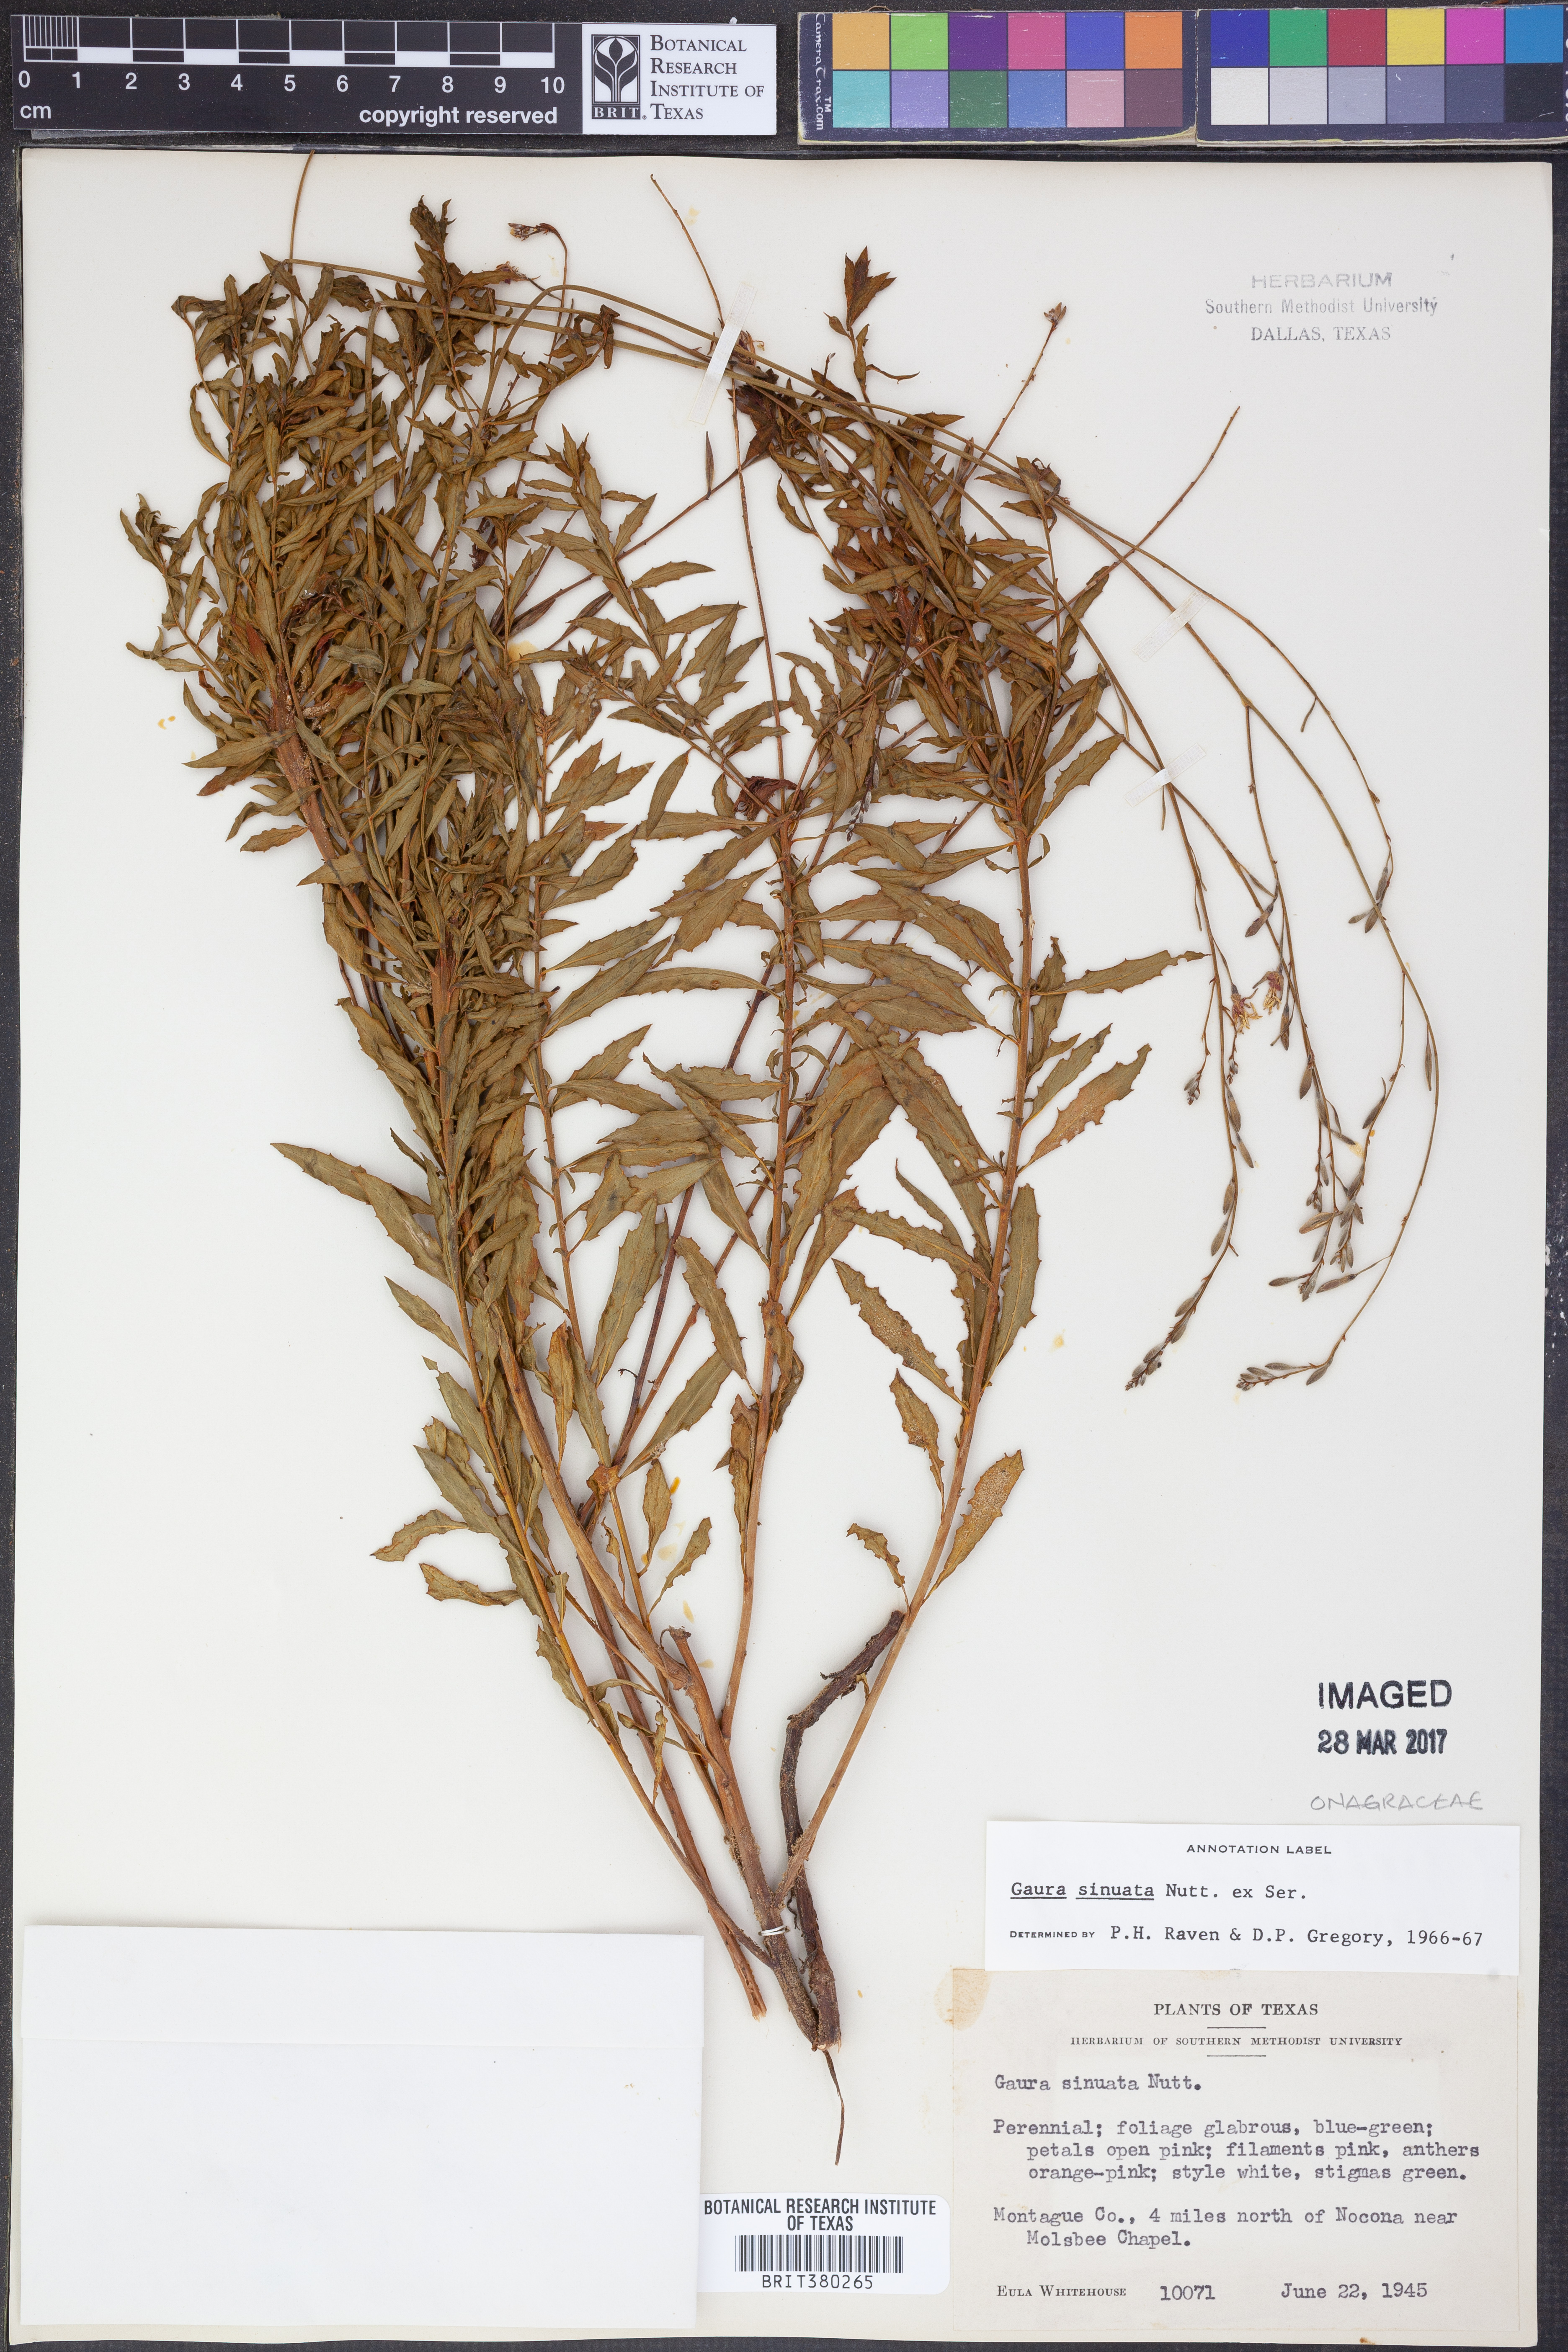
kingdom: Plantae
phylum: Tracheophyta
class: Magnoliopsida
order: Myrtales
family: Onagraceae
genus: Oenothera
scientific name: Oenothera sinuosa
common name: Wavyleaf beeblossom
